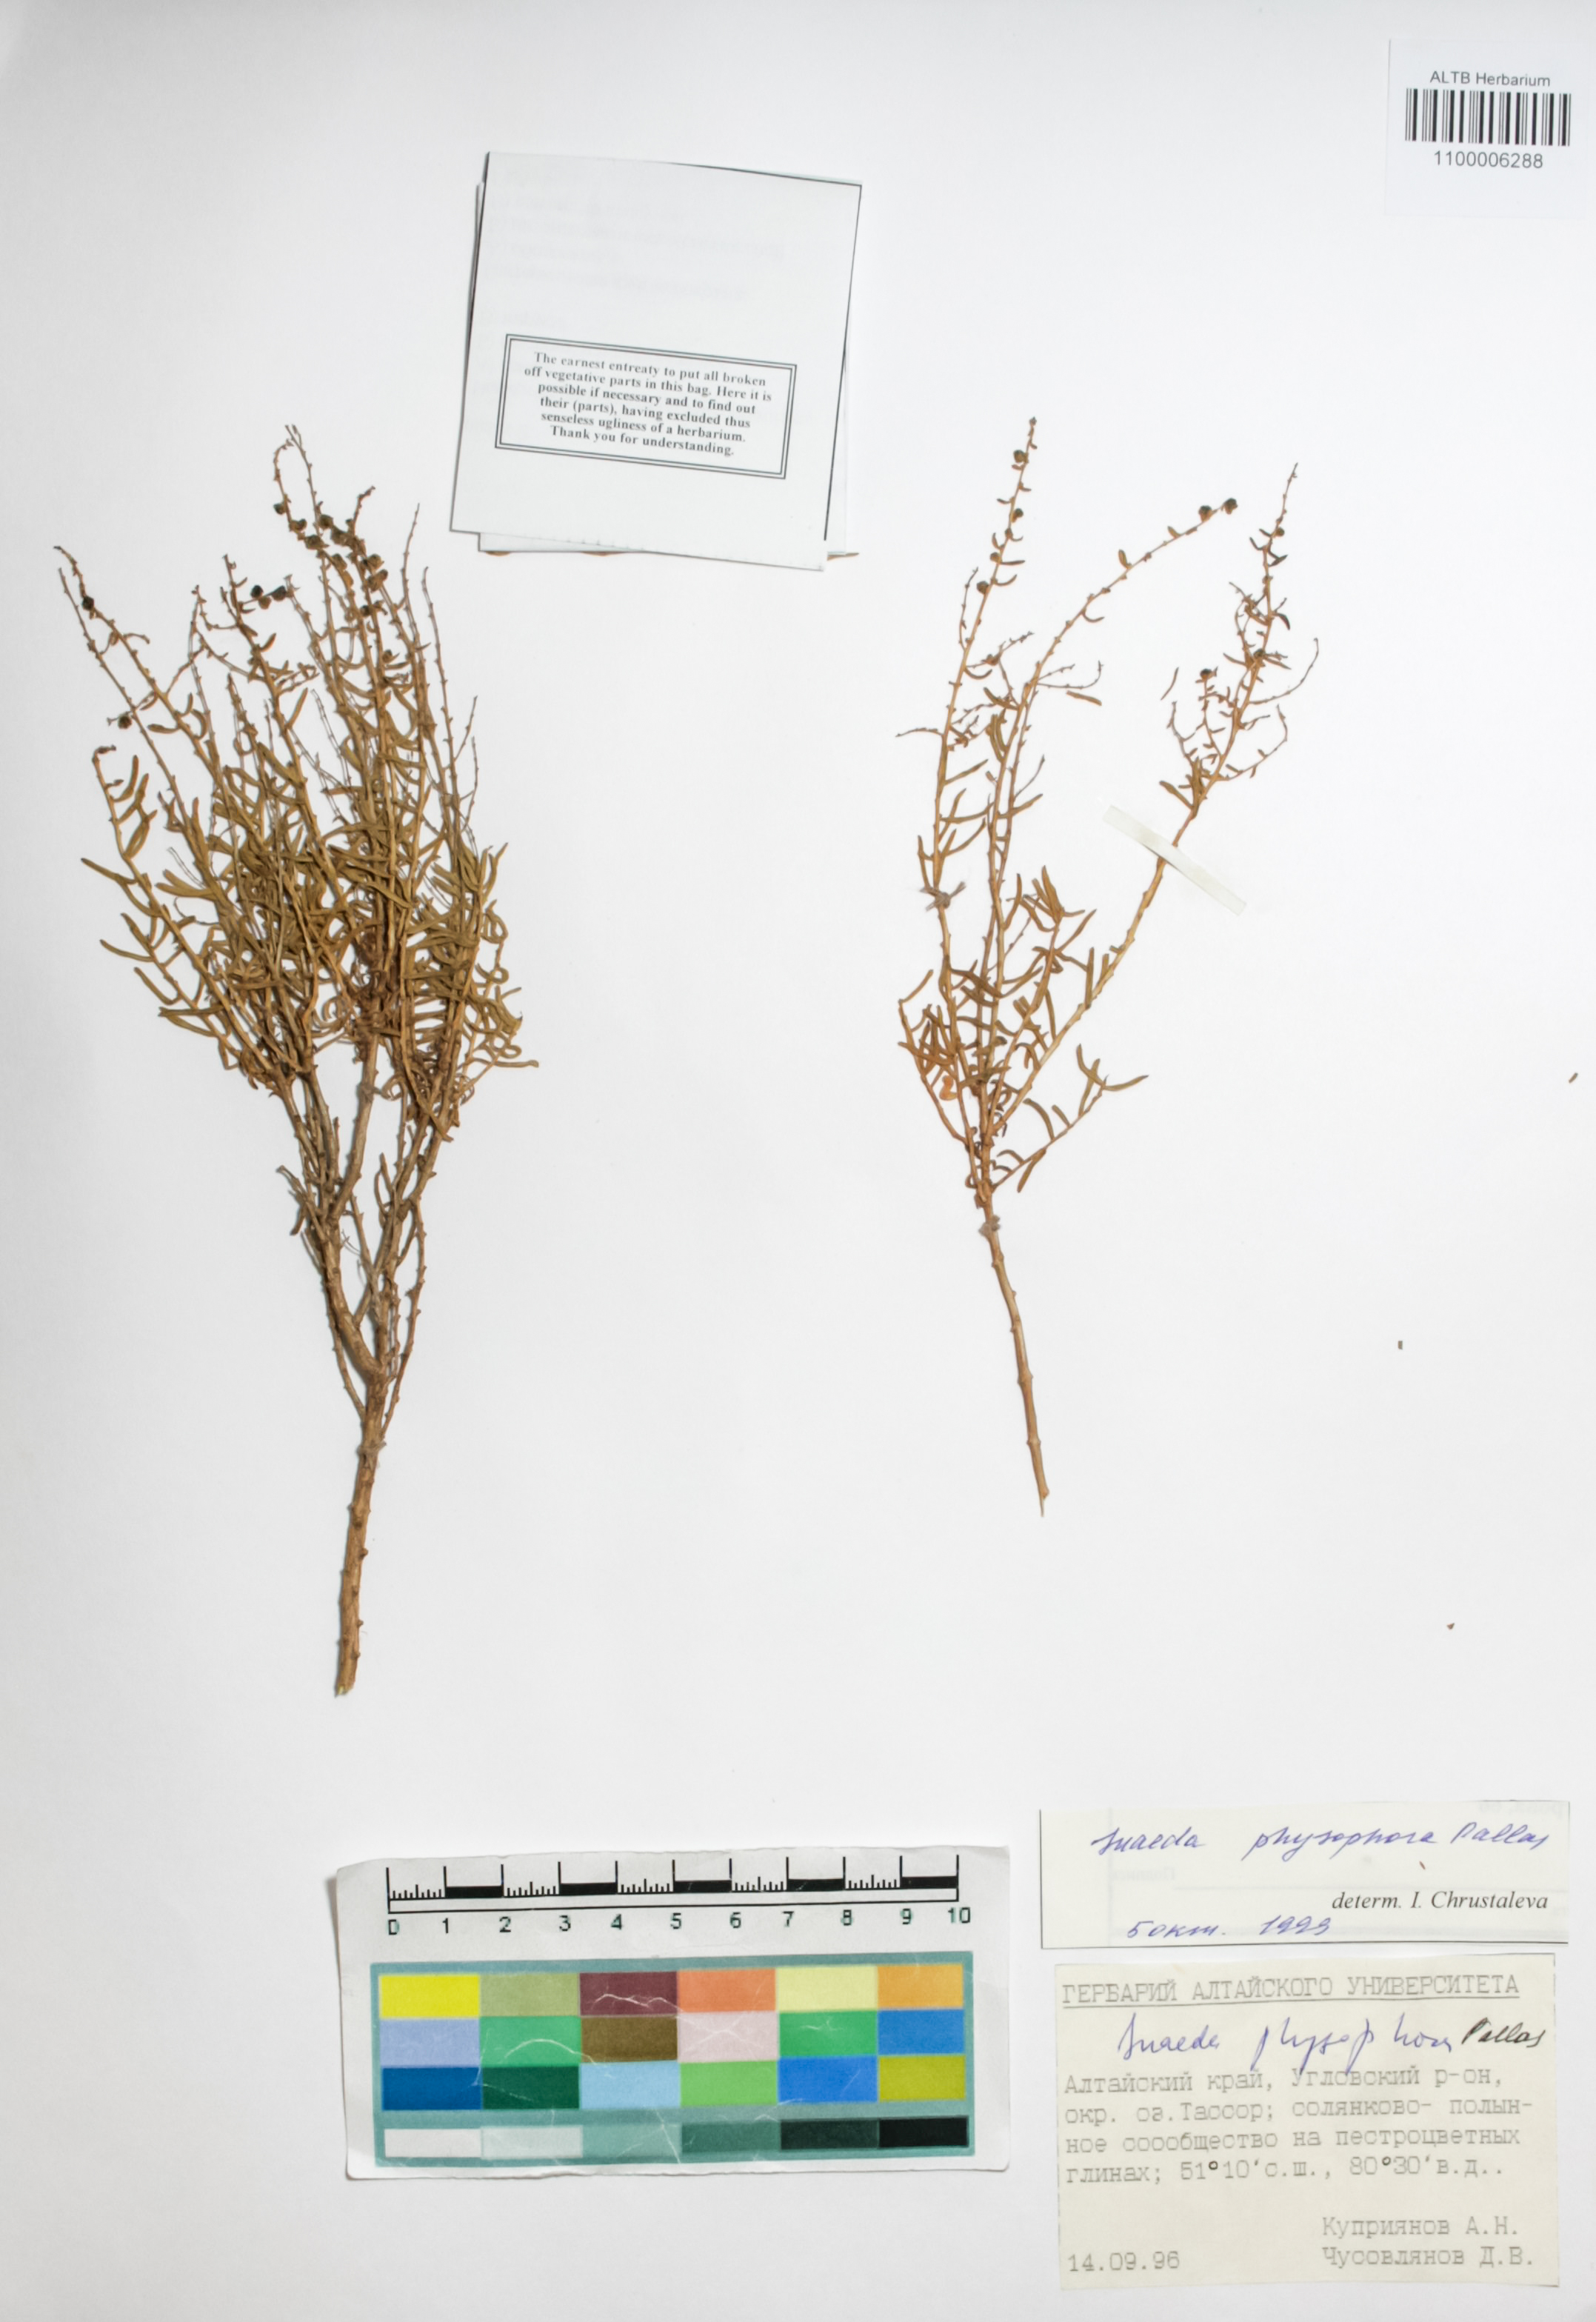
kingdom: Plantae
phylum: Tracheophyta
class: Magnoliopsida
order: Caryophyllales
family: Amaranthaceae
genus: Suaeda
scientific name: Suaeda physophora
